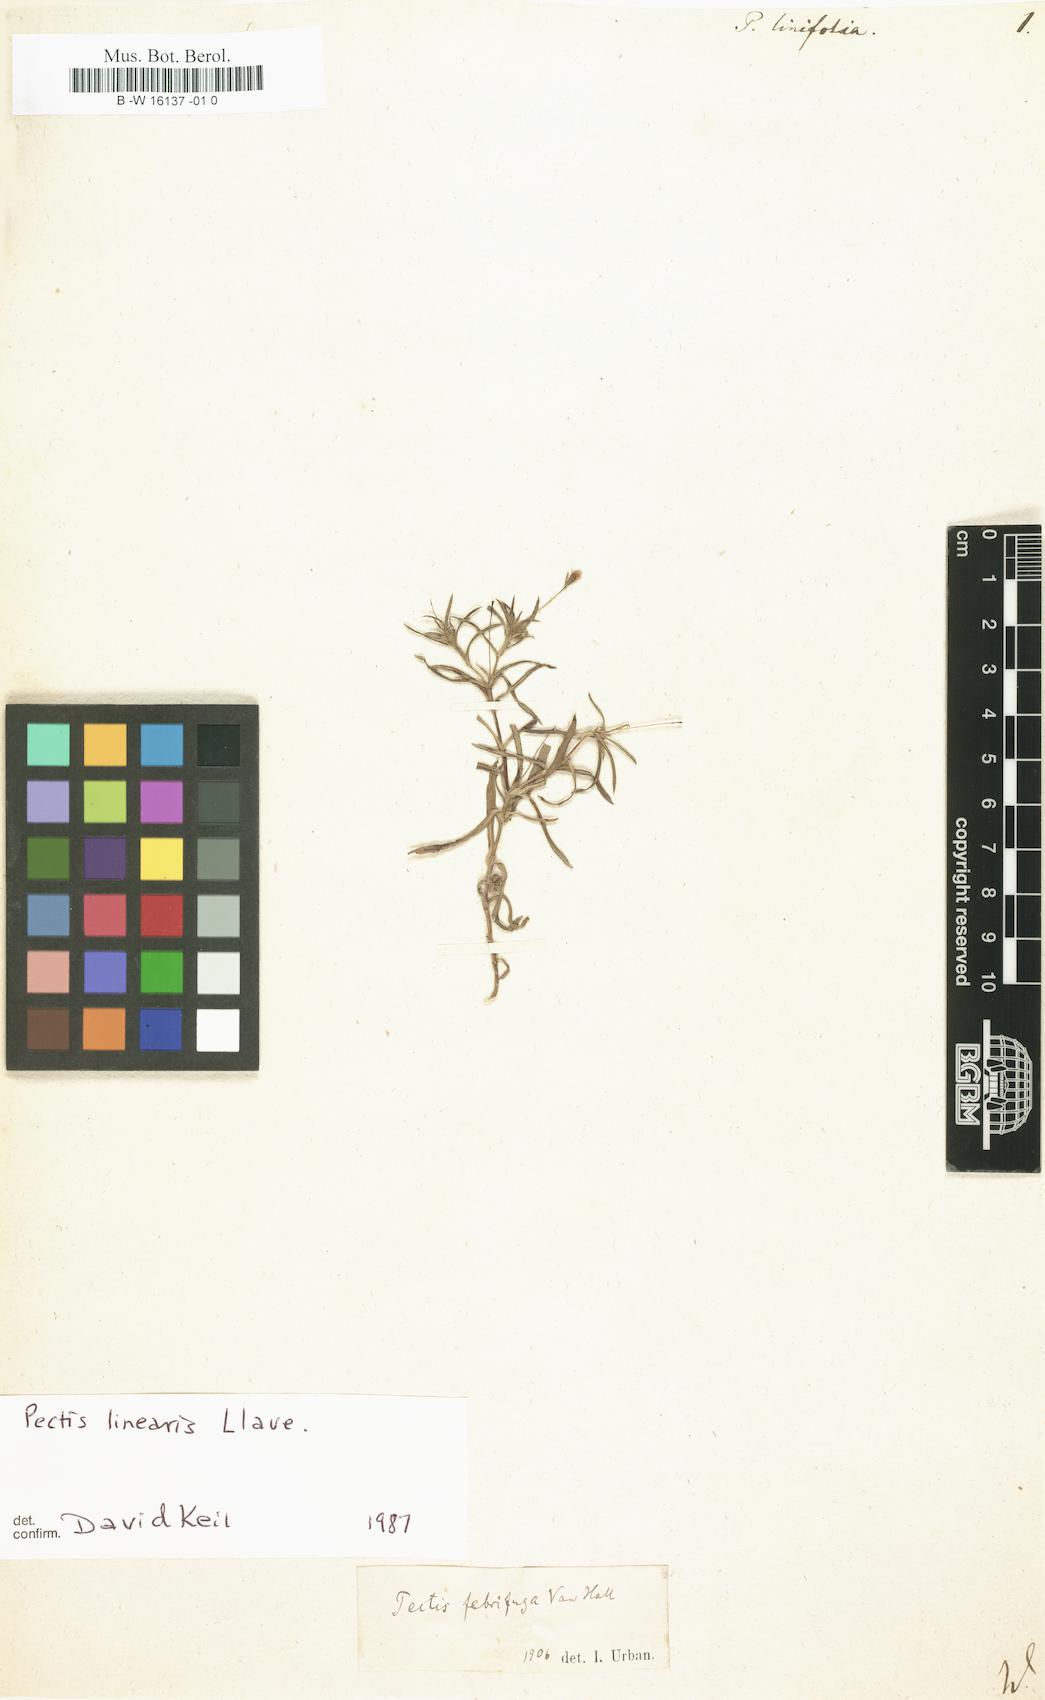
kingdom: Plantae
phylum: Tracheophyta
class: Magnoliopsida
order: Asterales
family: Asteraceae
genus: Pectis
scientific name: Pectis linifolia
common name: Romero macho
